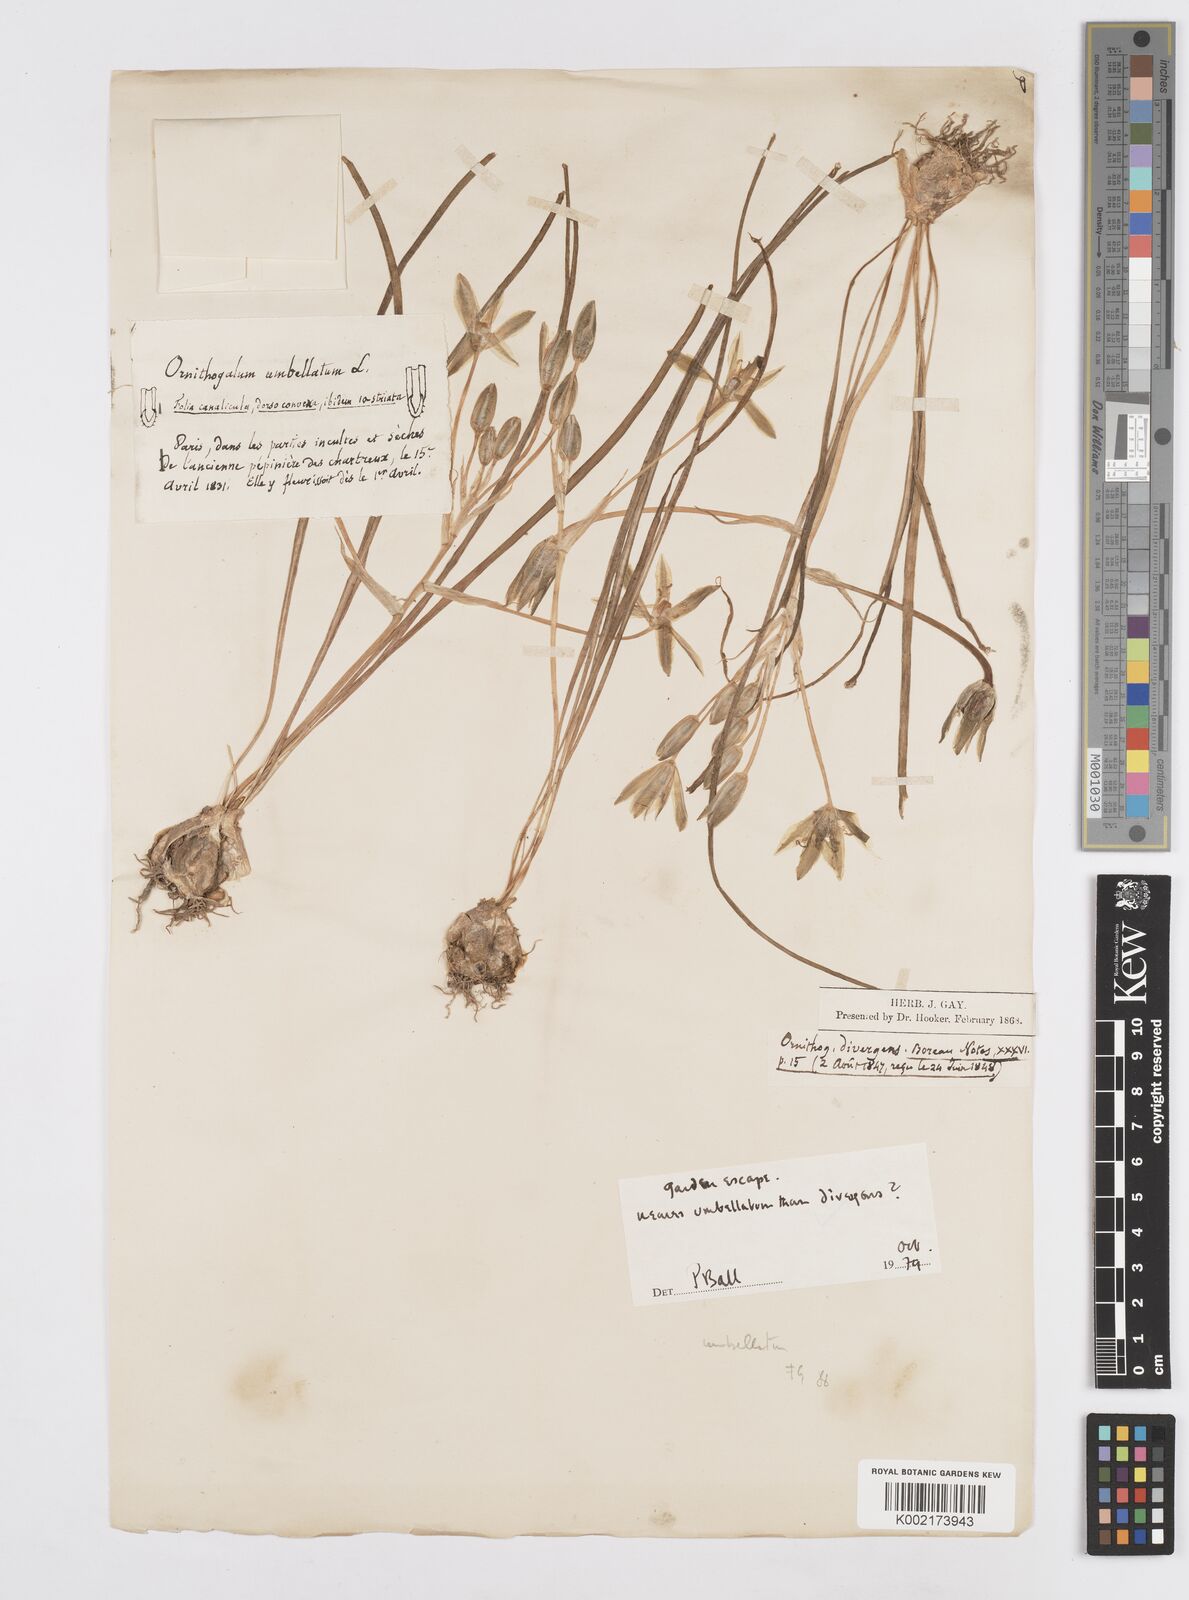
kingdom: Plantae
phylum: Tracheophyta
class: Liliopsida
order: Asparagales
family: Asparagaceae
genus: Ornithogalum
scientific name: Ornithogalum divergens
